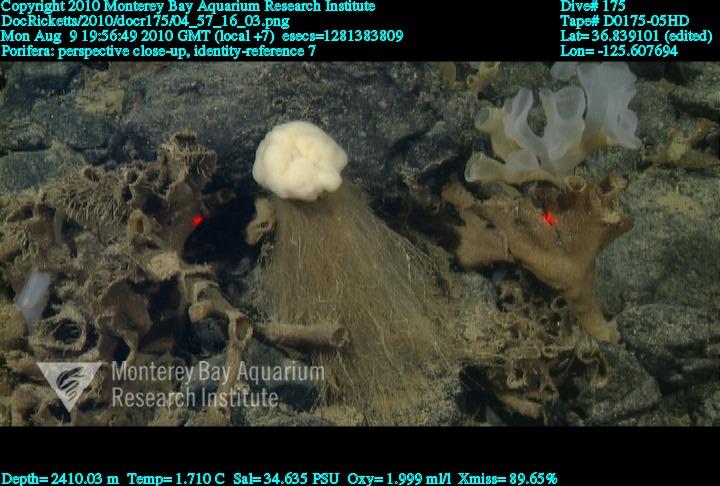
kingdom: Animalia
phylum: Porifera
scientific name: Porifera
